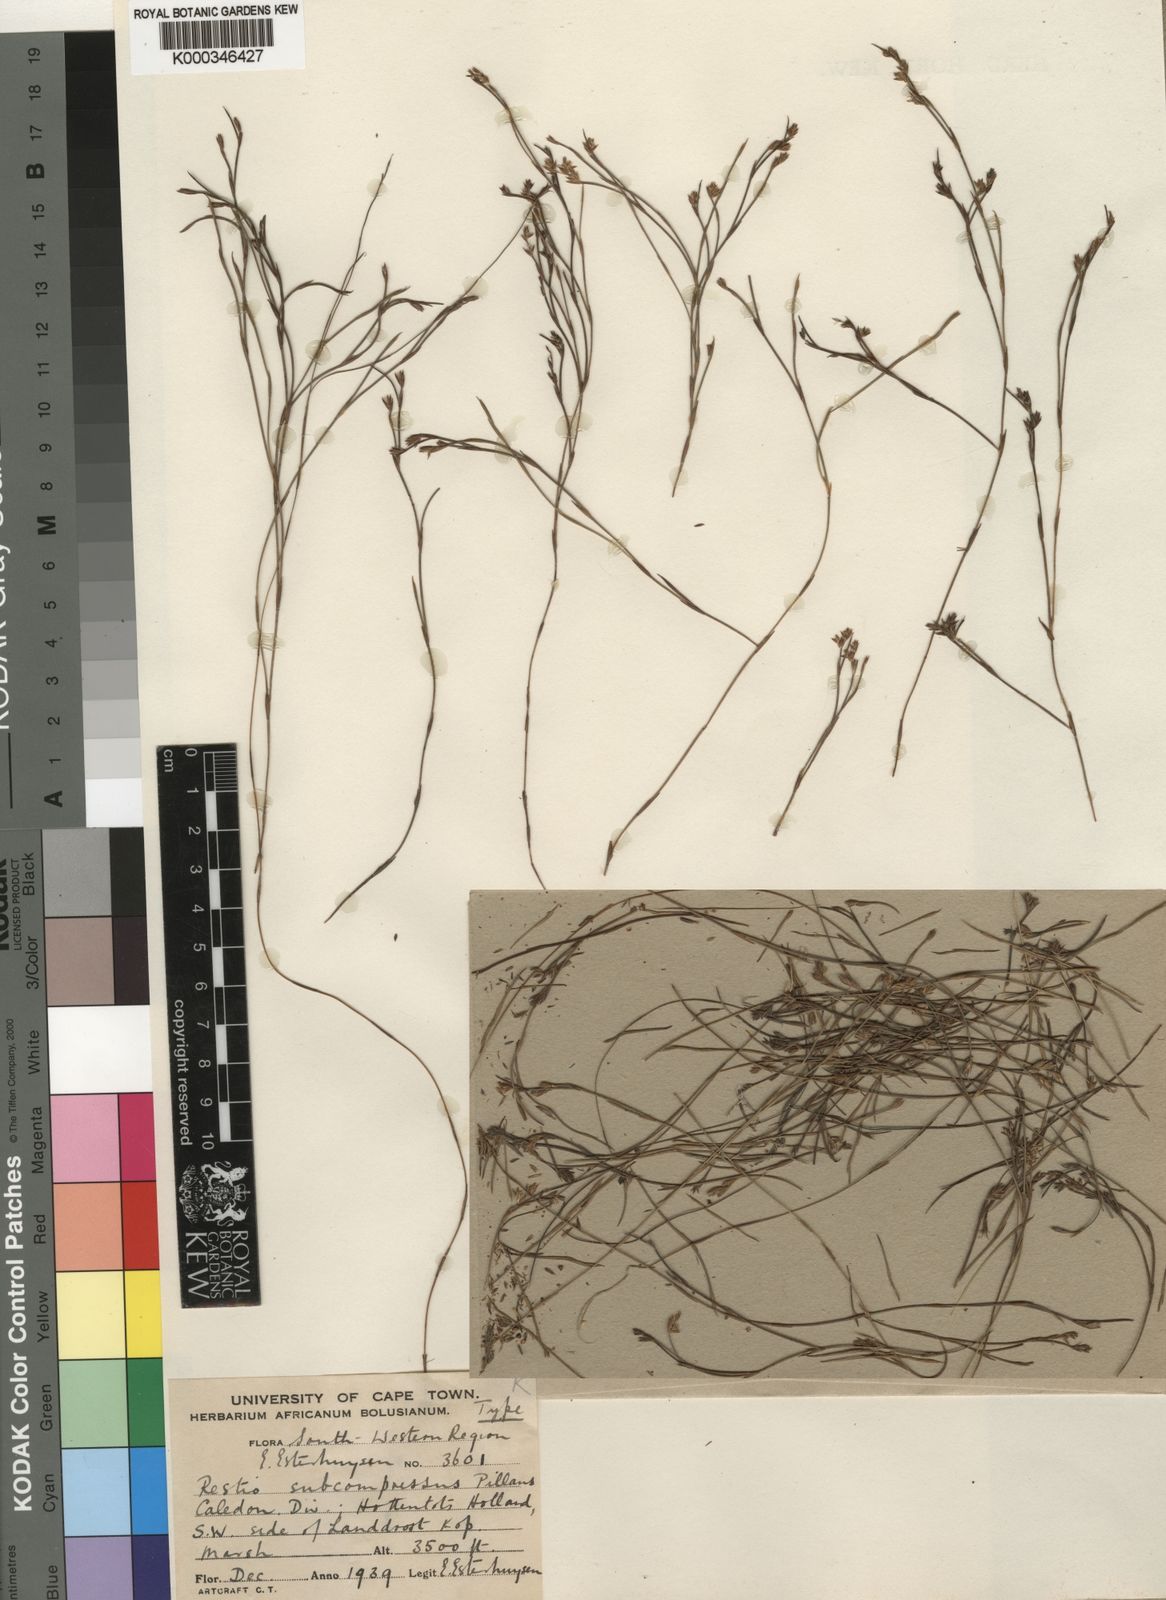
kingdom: Plantae
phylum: Tracheophyta
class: Liliopsida
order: Poales
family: Restionaceae
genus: Platycaulos
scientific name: Platycaulos subcompressus
